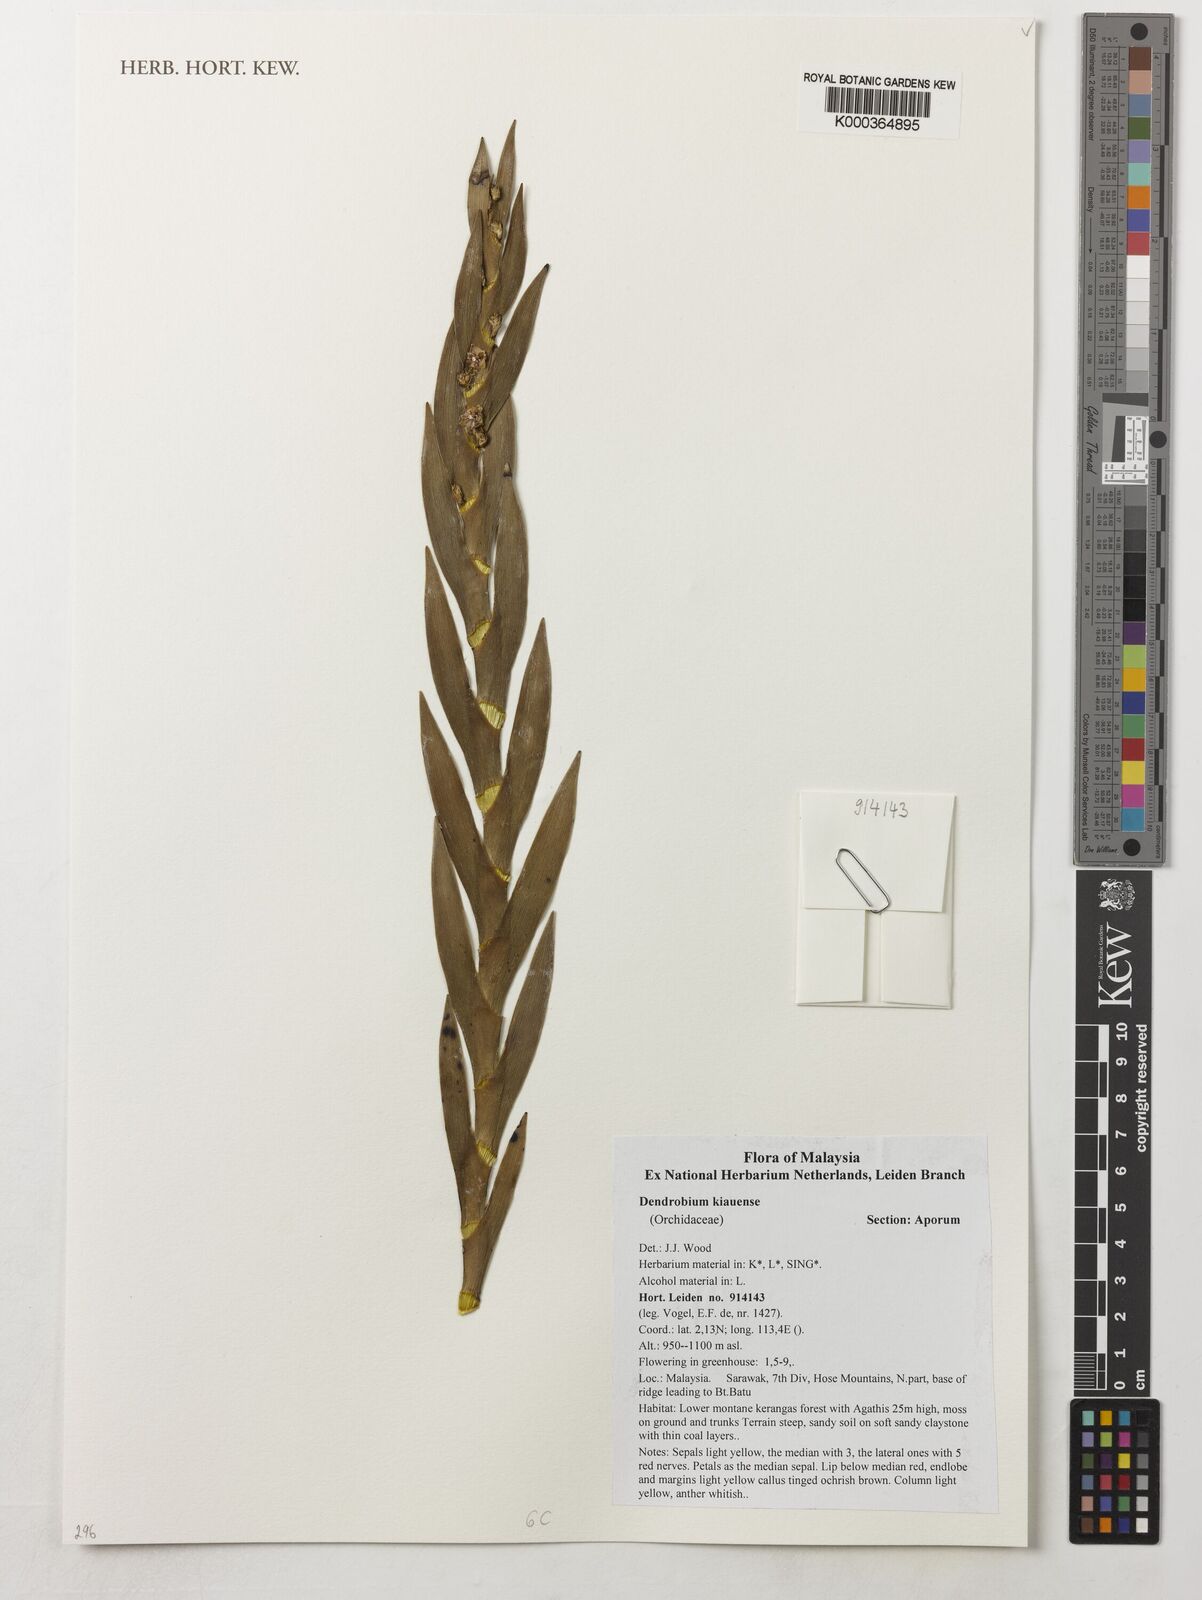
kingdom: Plantae
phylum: Tracheophyta
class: Liliopsida
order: Asparagales
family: Orchidaceae
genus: Dendrobium
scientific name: Dendrobium kiauense
